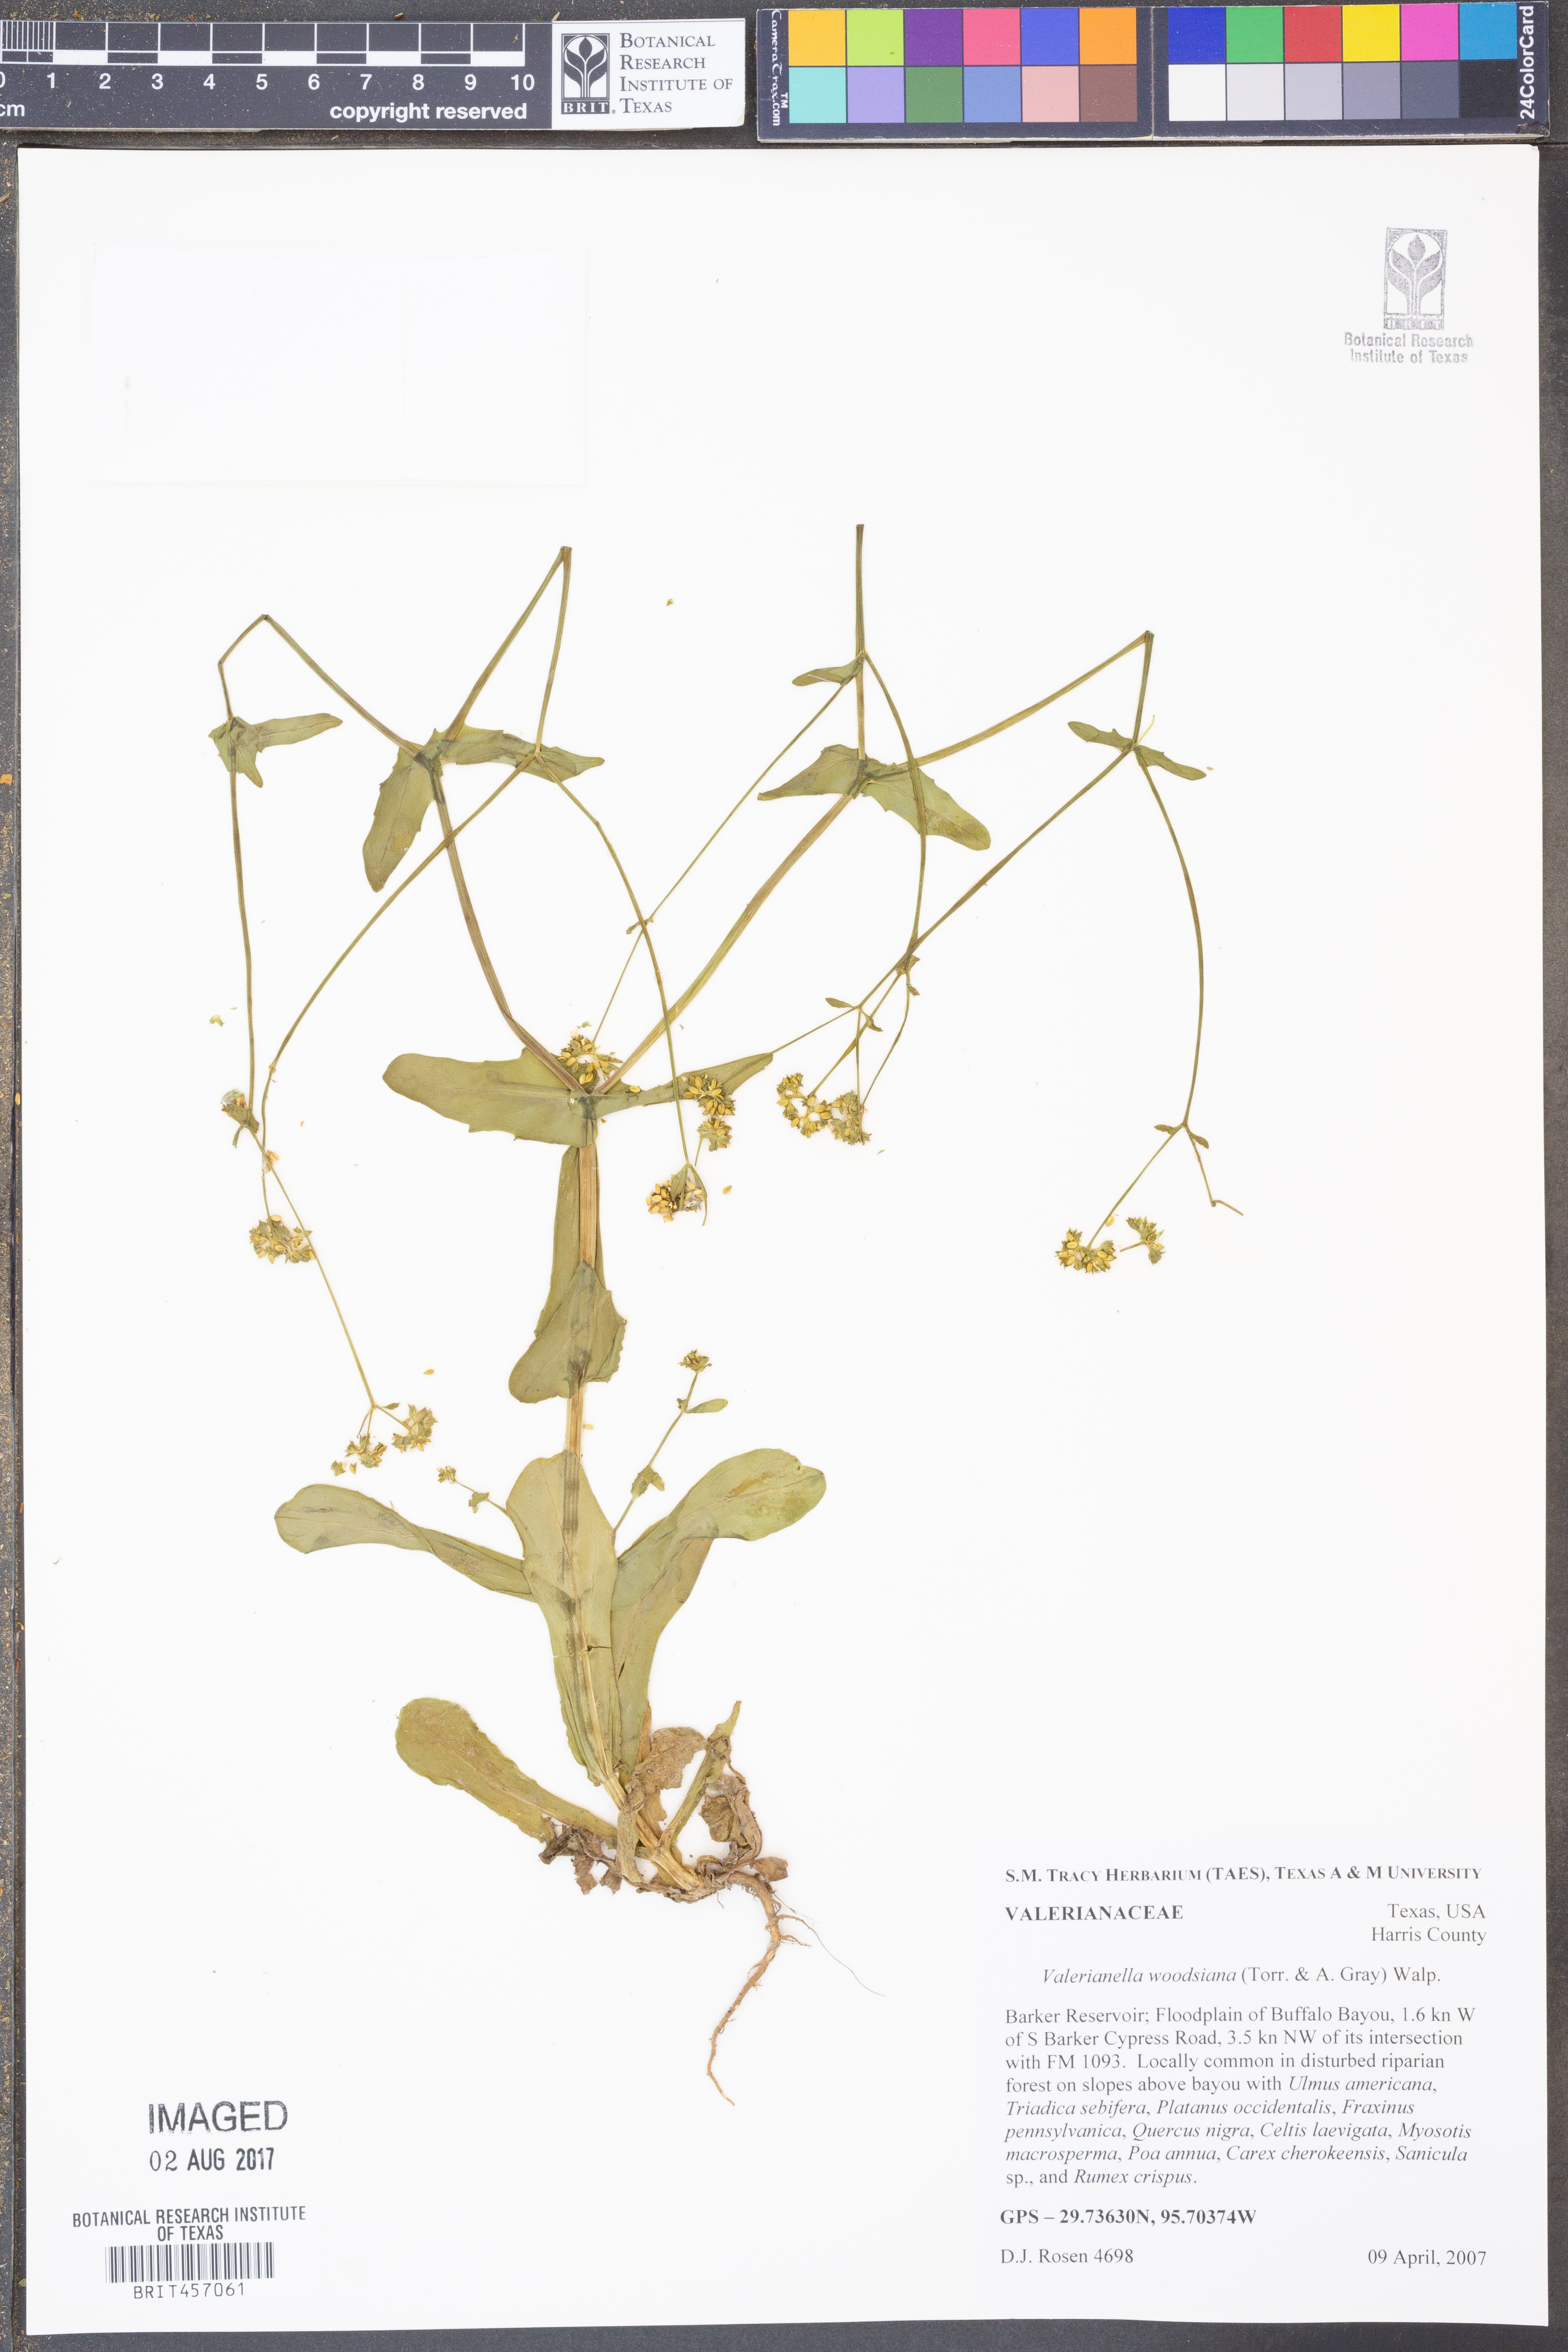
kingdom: Plantae
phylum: Tracheophyta
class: Magnoliopsida
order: Dipsacales
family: Caprifoliaceae
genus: Valerianella
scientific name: Valerianella radiata
